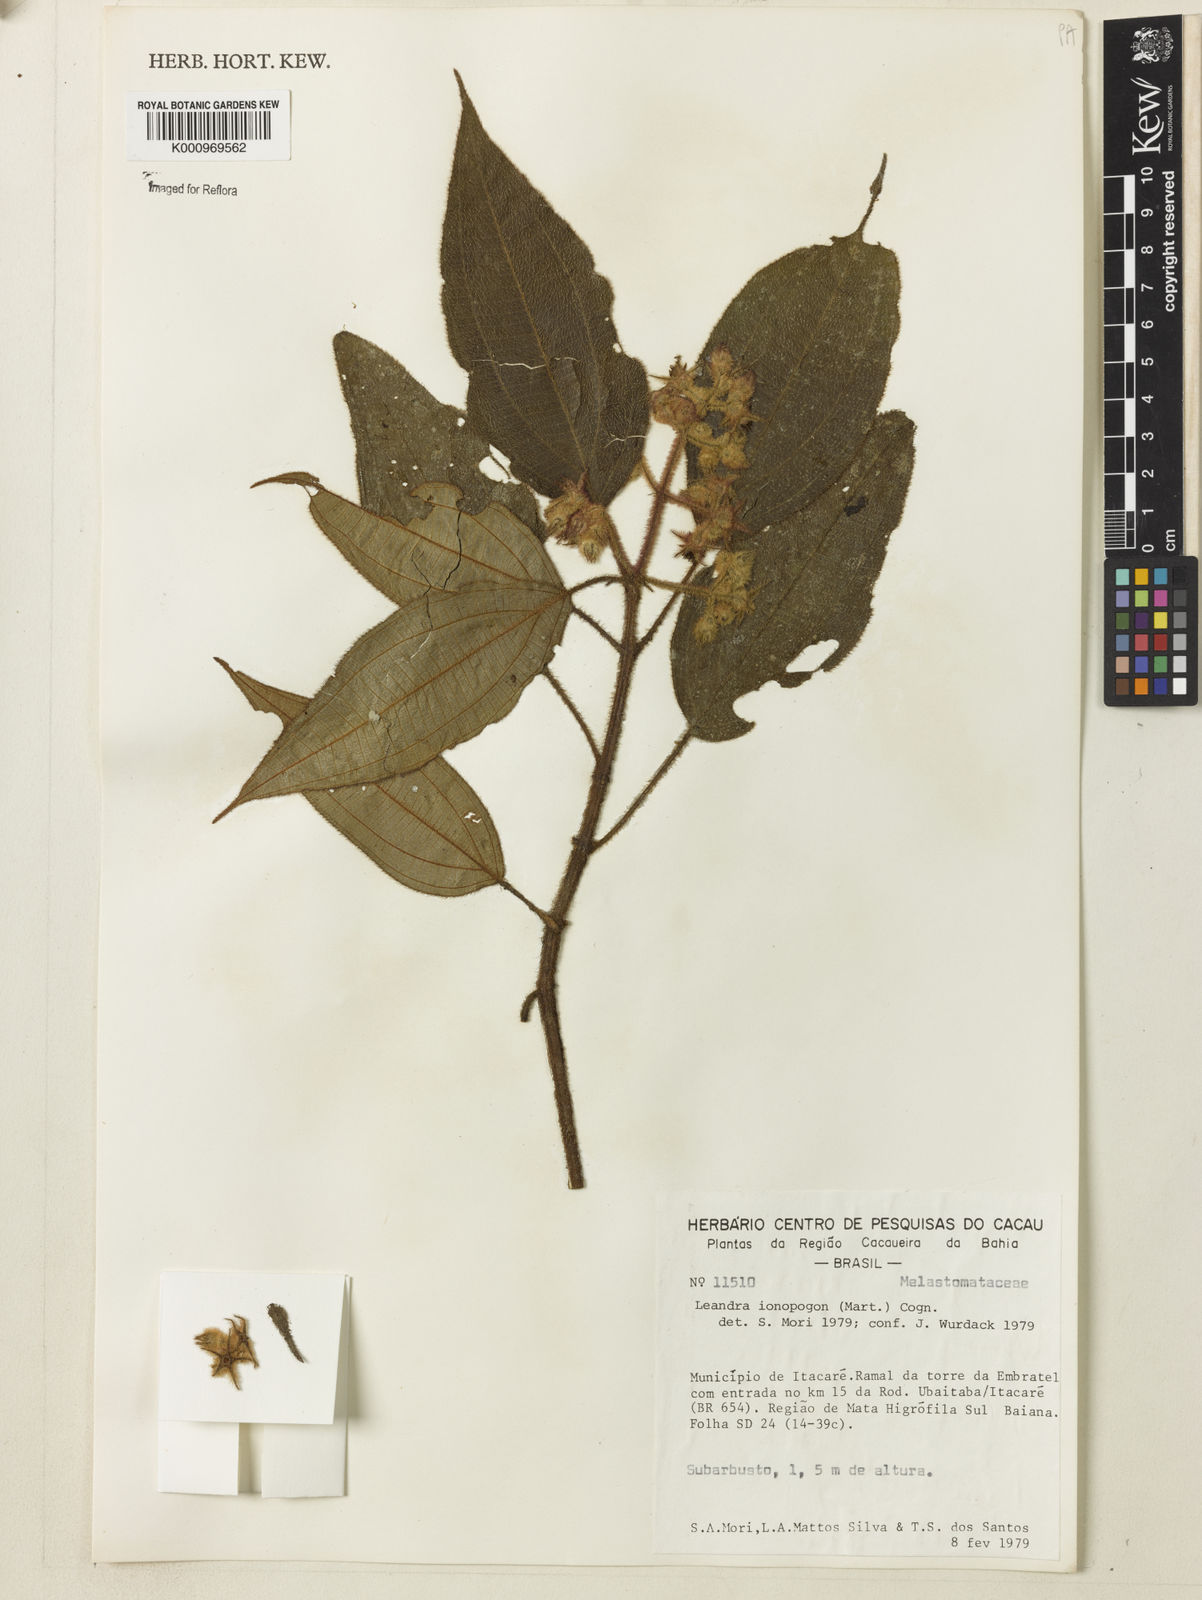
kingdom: Plantae
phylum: Tracheophyta
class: Magnoliopsida
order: Myrtales
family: Melastomataceae
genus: Miconia
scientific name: Miconia ionopogon
